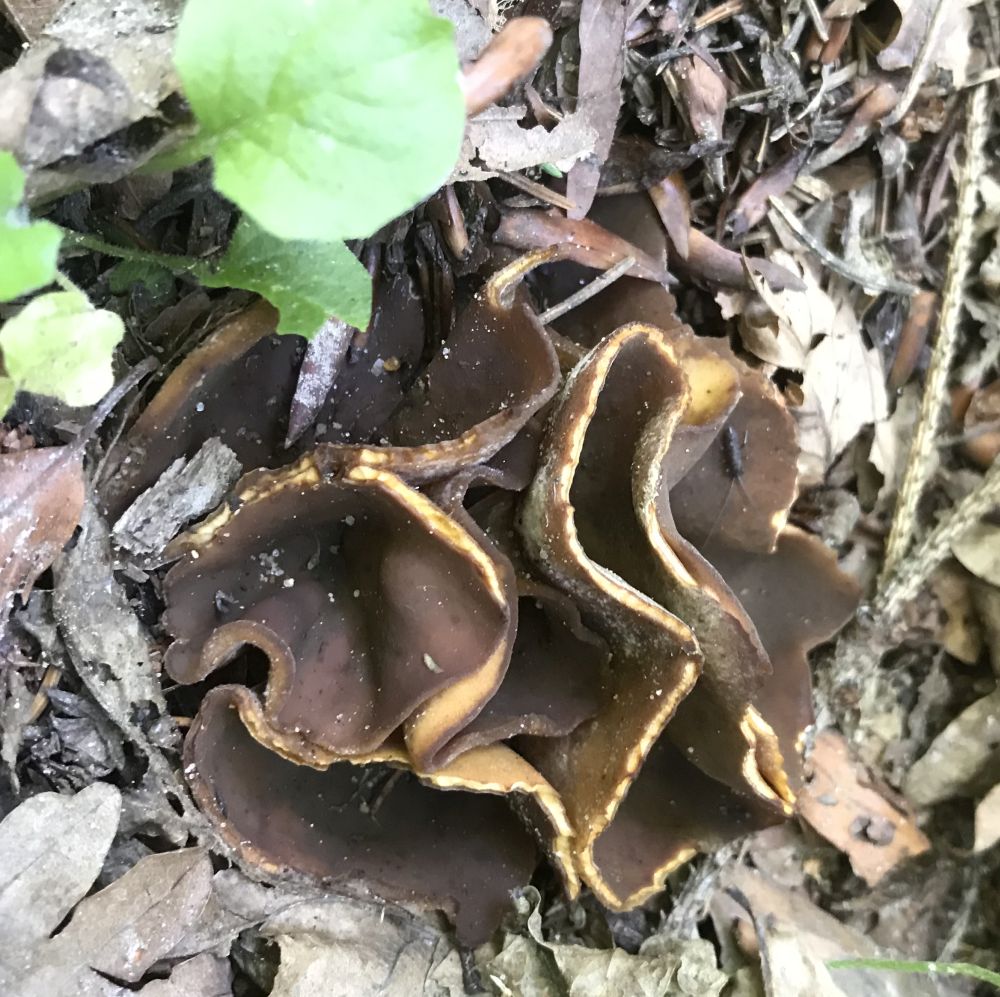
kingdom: Fungi
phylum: Ascomycota
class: Pezizomycetes
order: Pezizales
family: Pezizaceae
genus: Peziza
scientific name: Peziza
